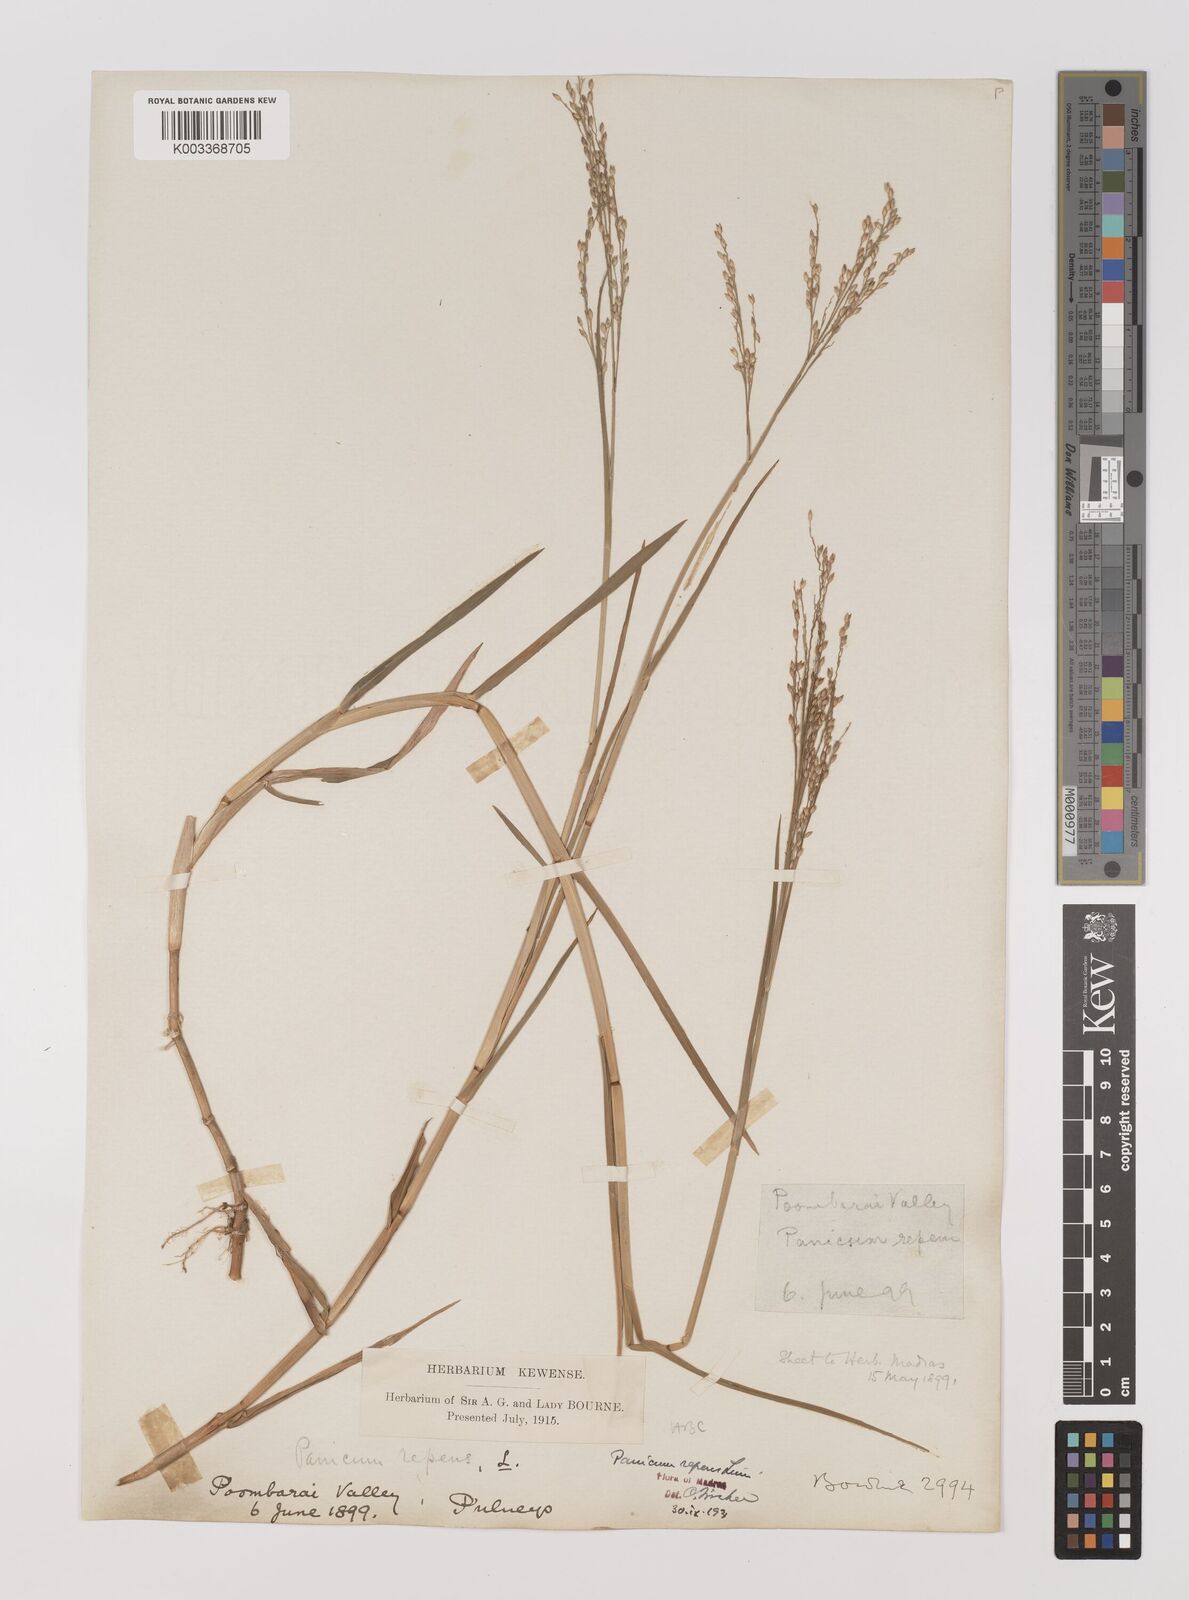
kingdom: Plantae
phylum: Tracheophyta
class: Liliopsida
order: Poales
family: Poaceae
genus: Panicum
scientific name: Panicum repens
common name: Torpedo grass
